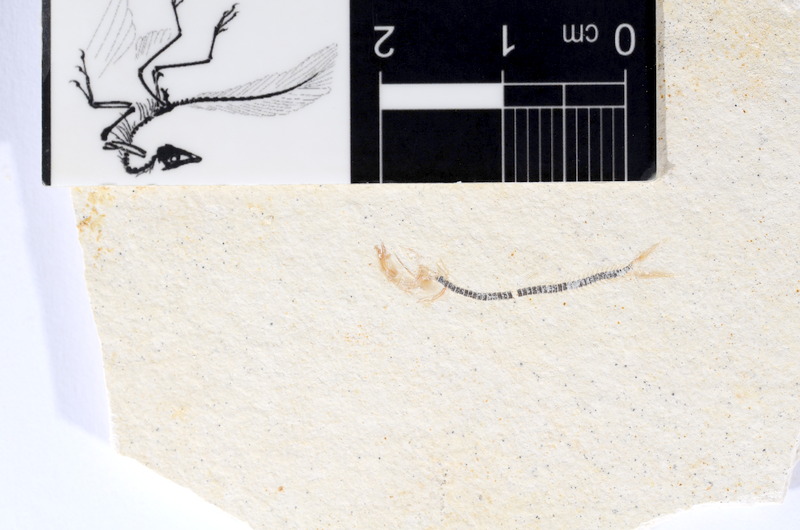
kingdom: Animalia
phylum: Chordata
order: Salmoniformes
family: Orthogonikleithridae
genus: Orthogonikleithrus
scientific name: Orthogonikleithrus hoelli
